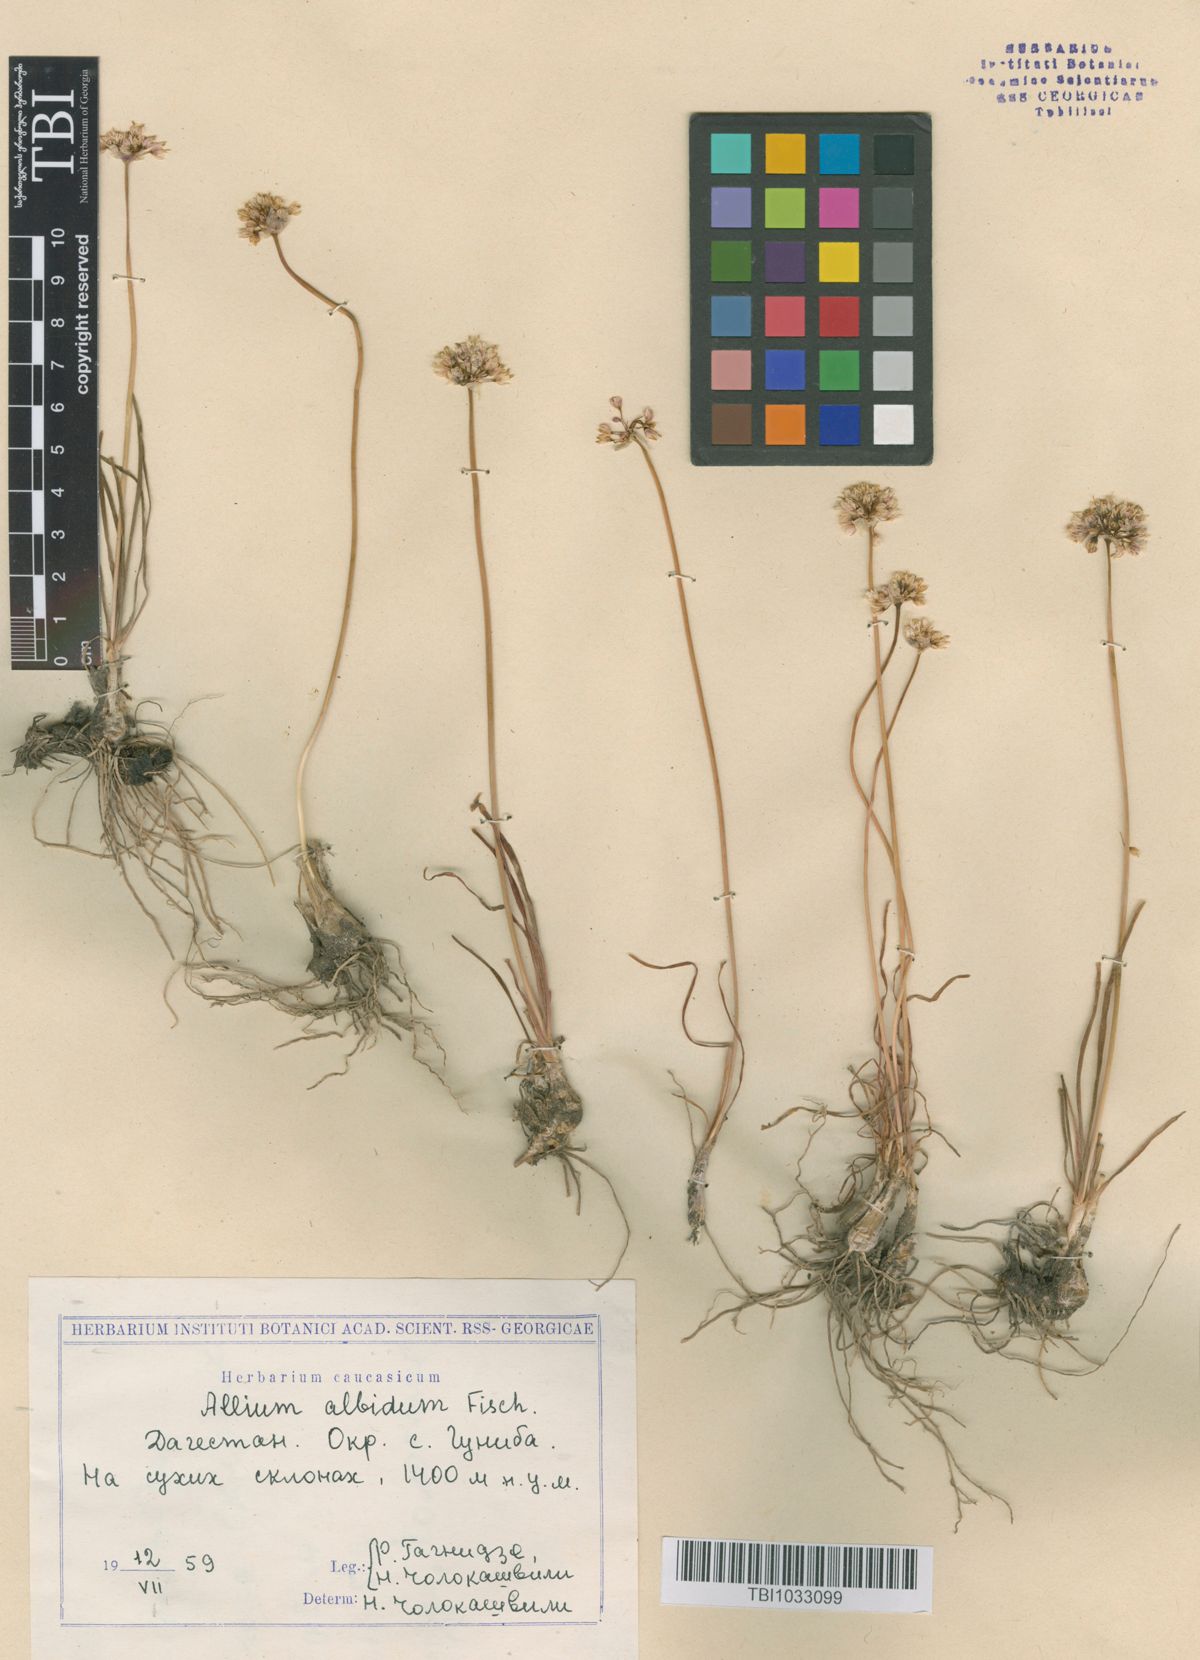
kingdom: Plantae
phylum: Tracheophyta
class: Liliopsida
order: Asparagales
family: Amaryllidaceae
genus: Allium
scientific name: Allium denudatum
